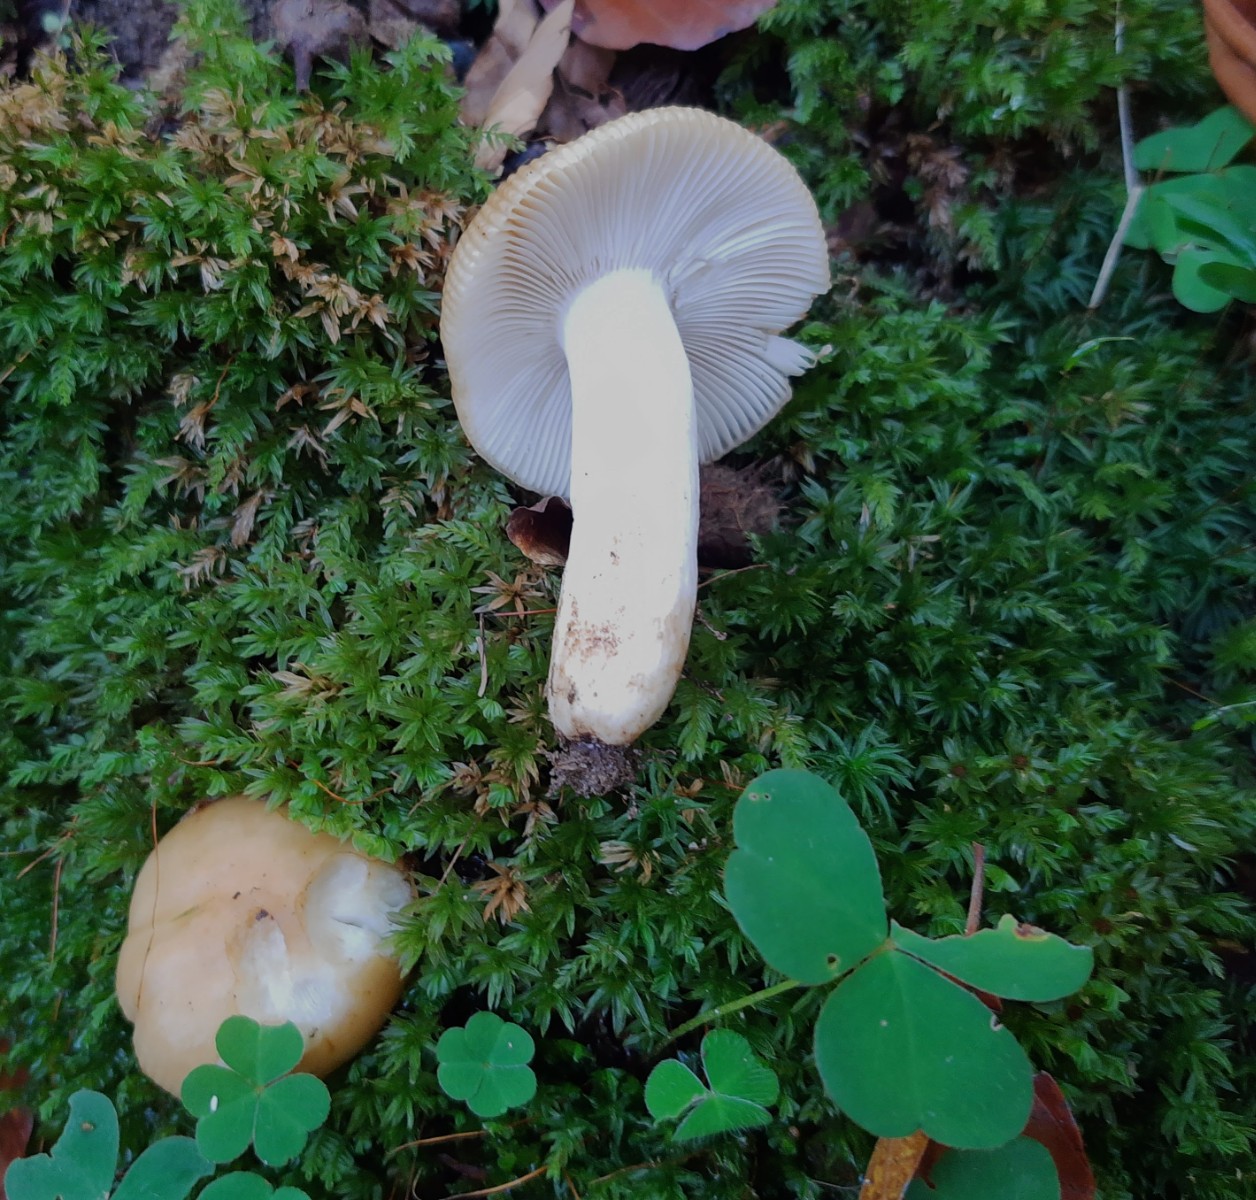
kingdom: Fungi
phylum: Basidiomycota
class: Agaricomycetes
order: Russulales
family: Russulaceae
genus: Russula
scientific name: Russula grata
